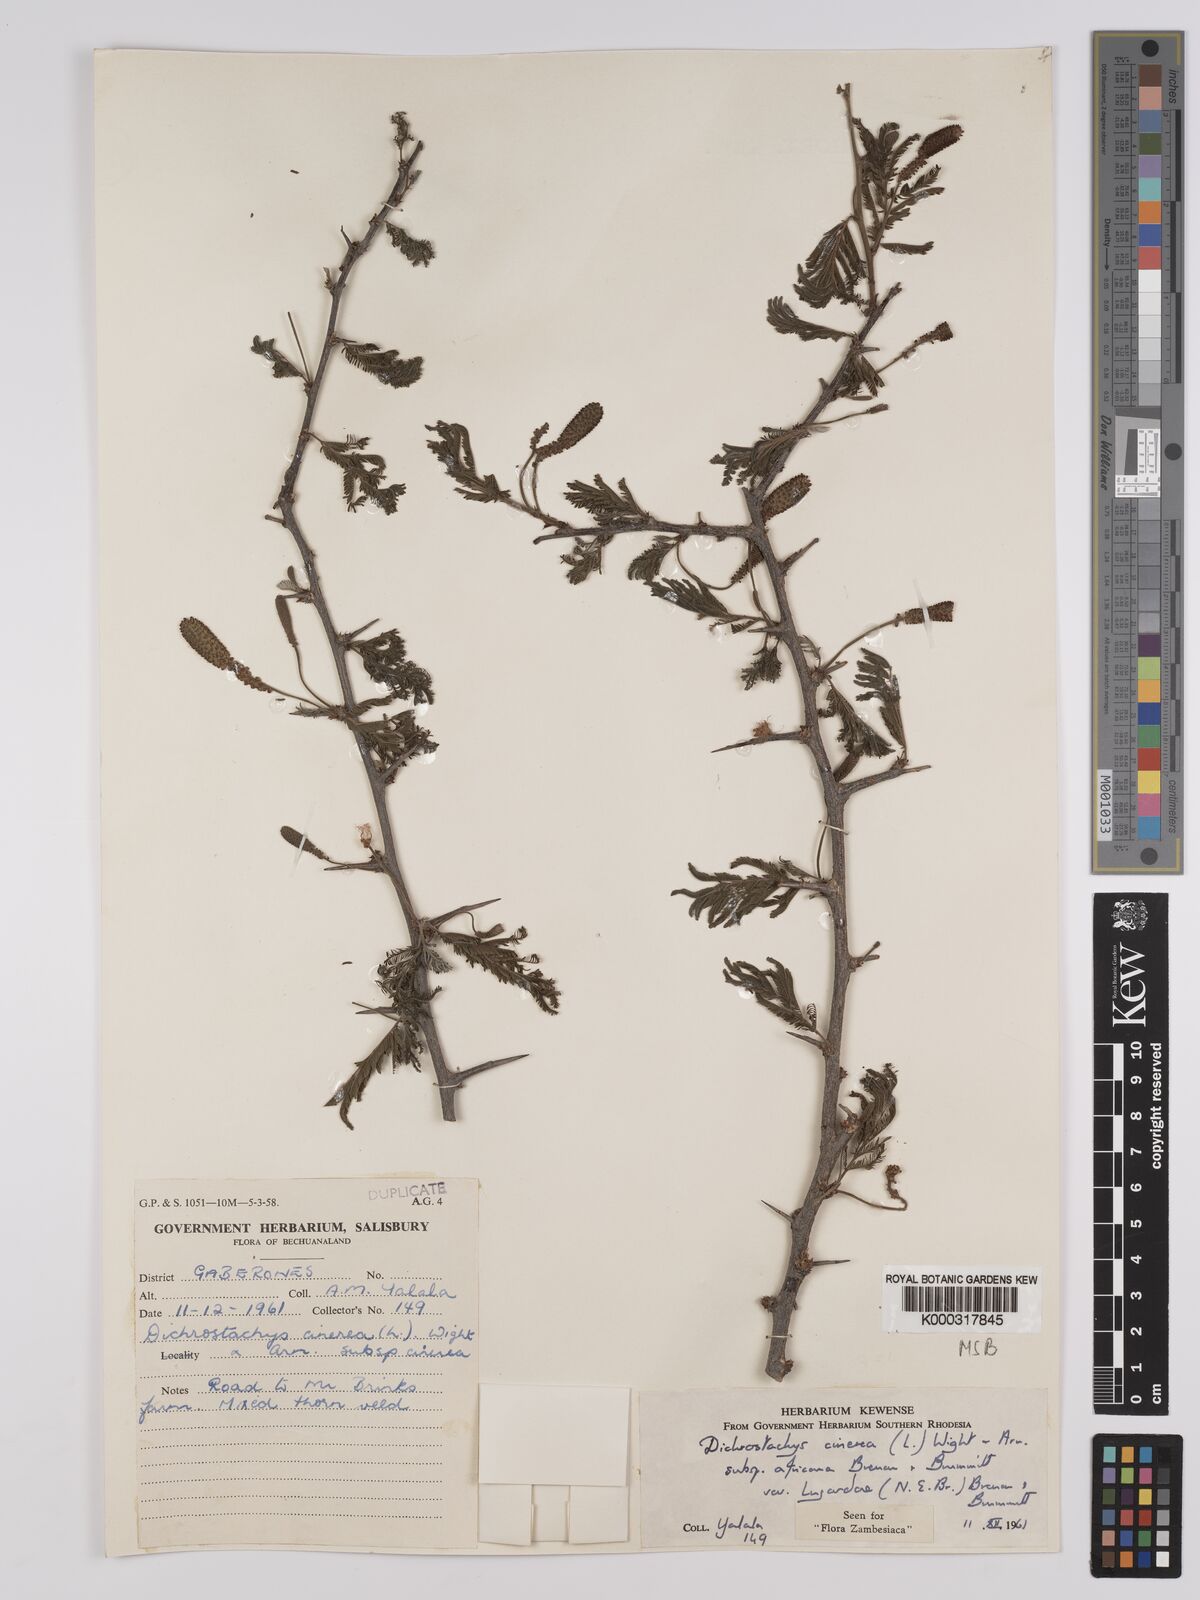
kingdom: Plantae
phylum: Tracheophyta
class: Magnoliopsida
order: Fabales
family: Fabaceae
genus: Dichrostachys
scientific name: Dichrostachys cinerea
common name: Sicklebush
